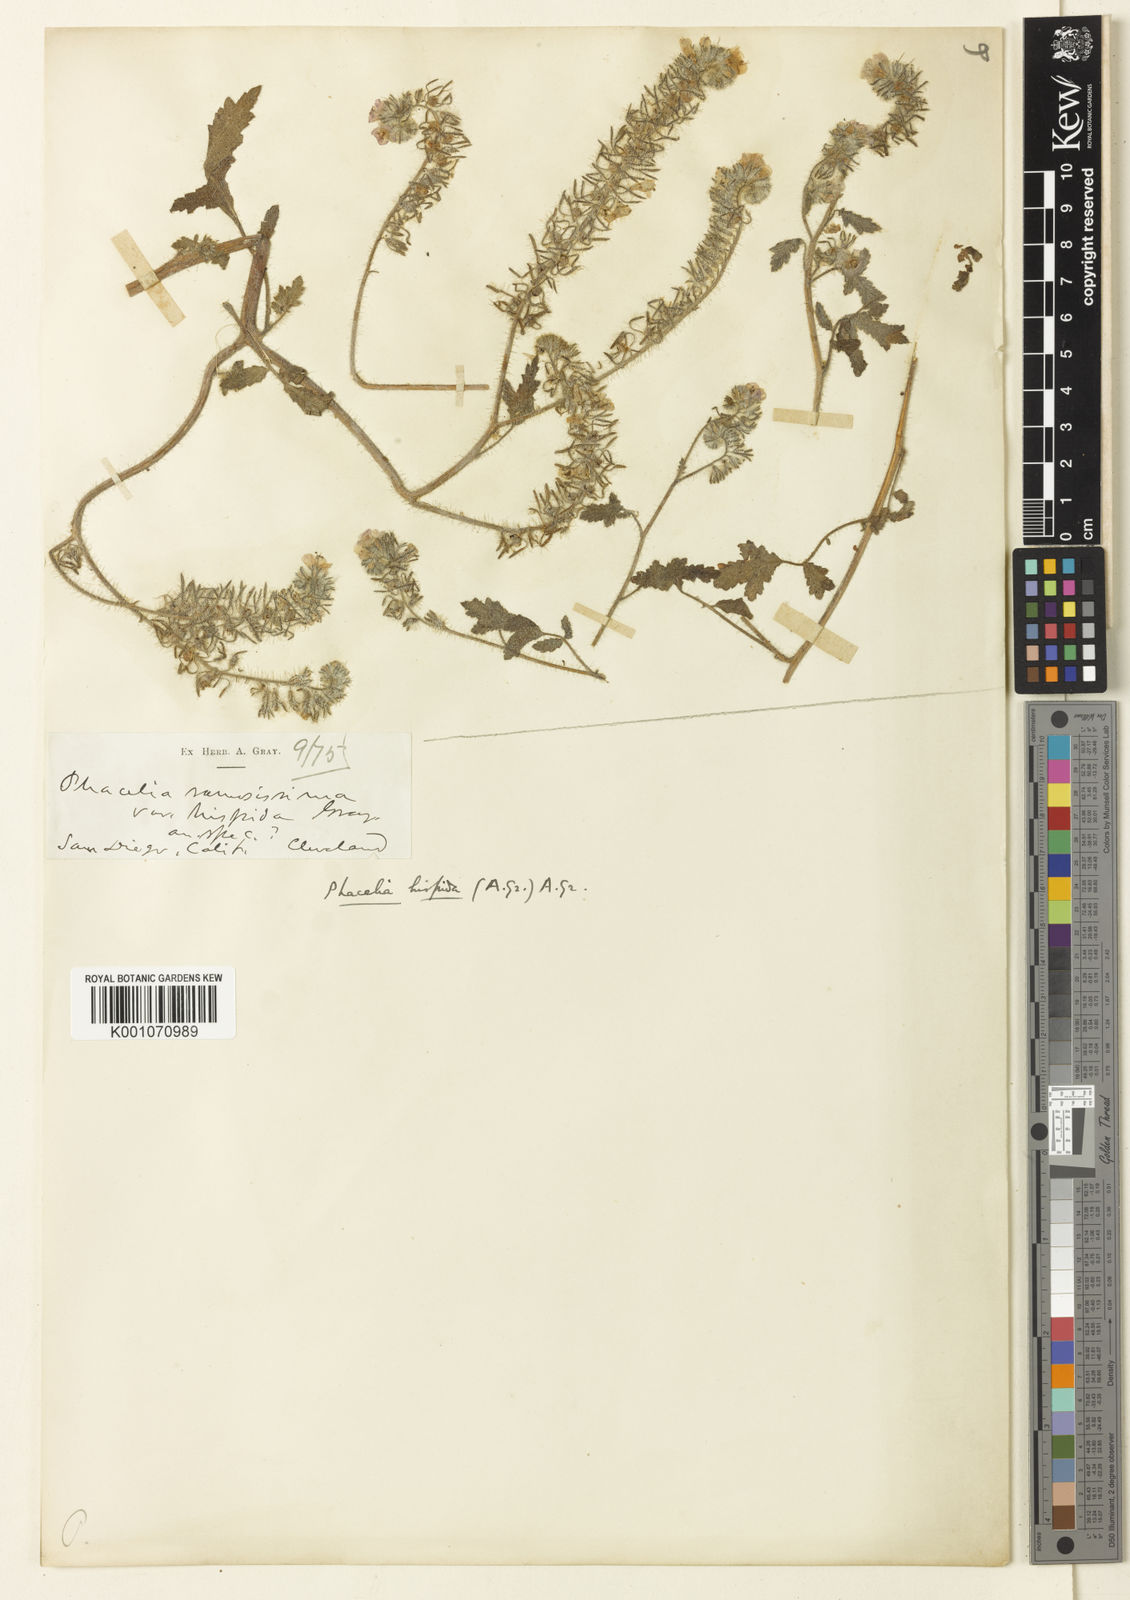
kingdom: Plantae
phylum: Tracheophyta
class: Magnoliopsida
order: Boraginales
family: Hydrophyllaceae
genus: Phacelia
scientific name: Phacelia
